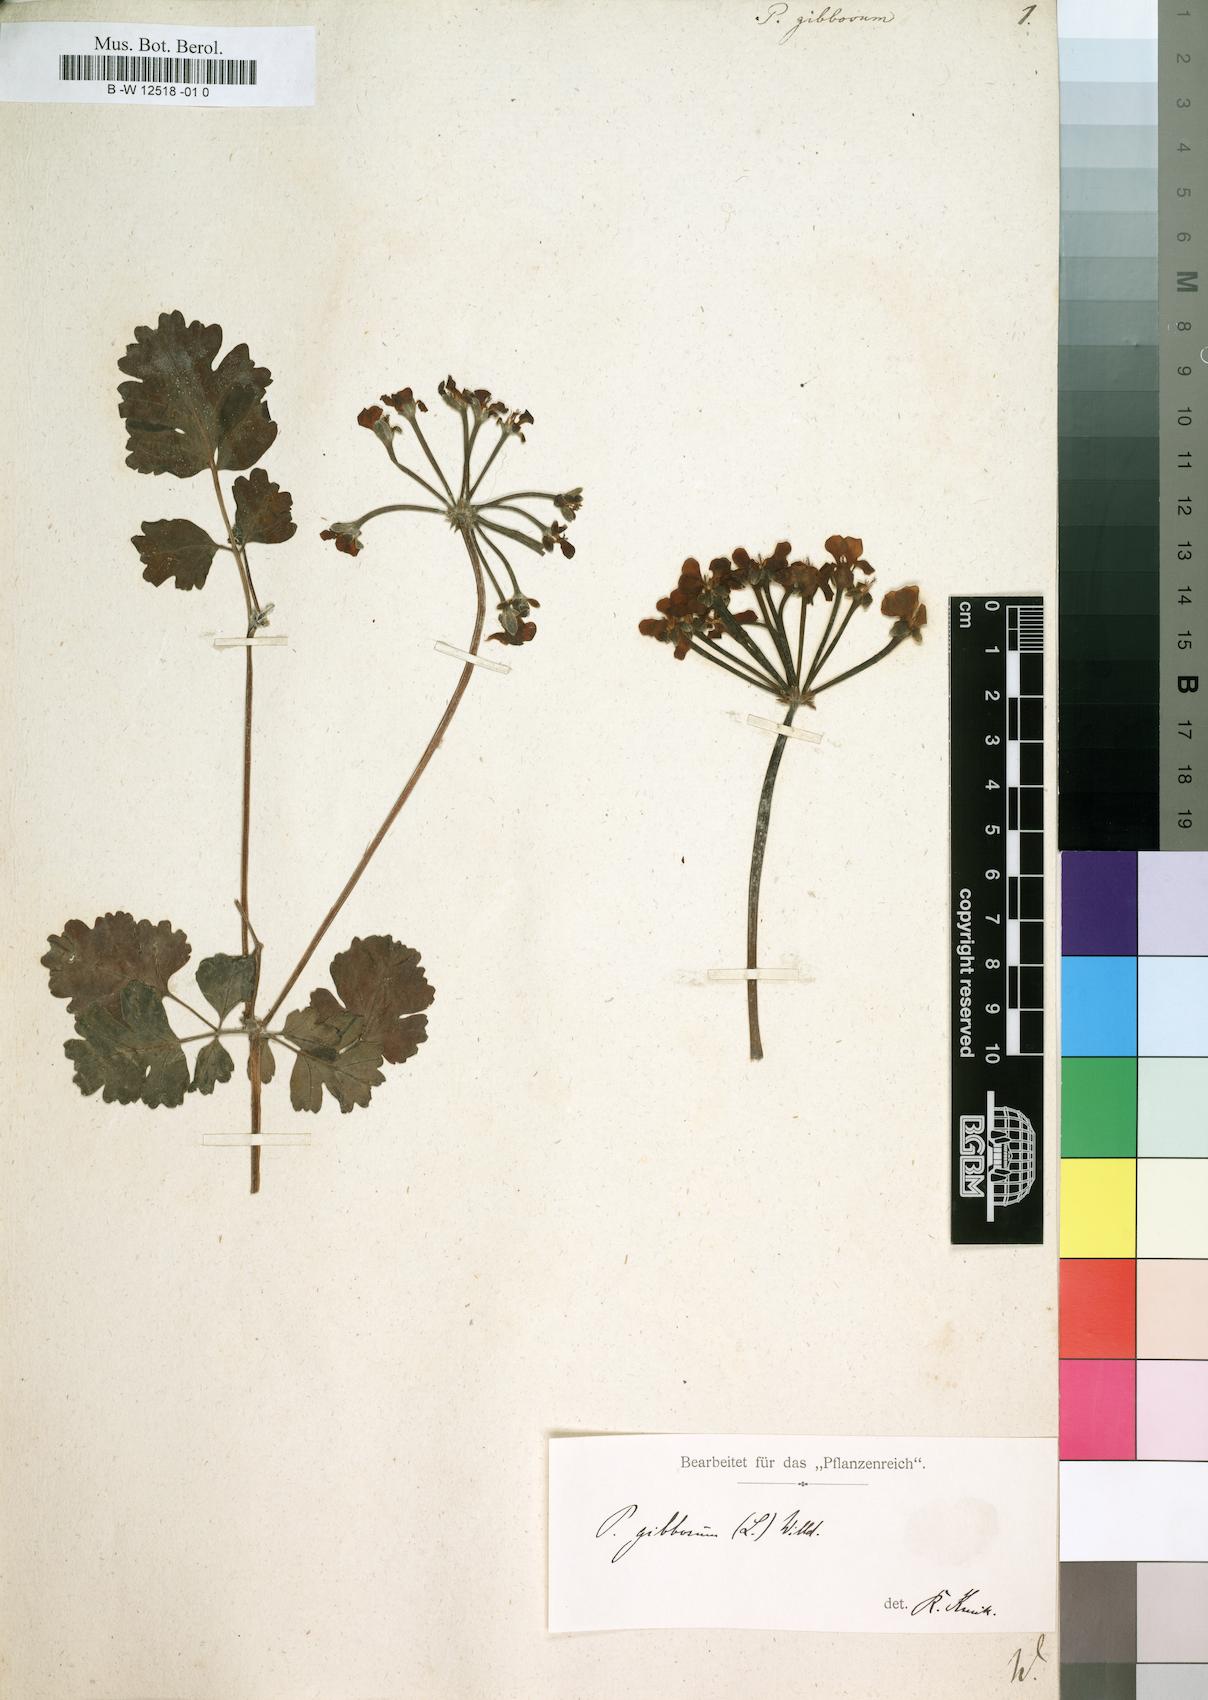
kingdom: Plantae
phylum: Tracheophyta
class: Magnoliopsida
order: Geraniales
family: Geraniaceae
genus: Pelargonium
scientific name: Pelargonium gibbosum
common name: Gouty geranium
